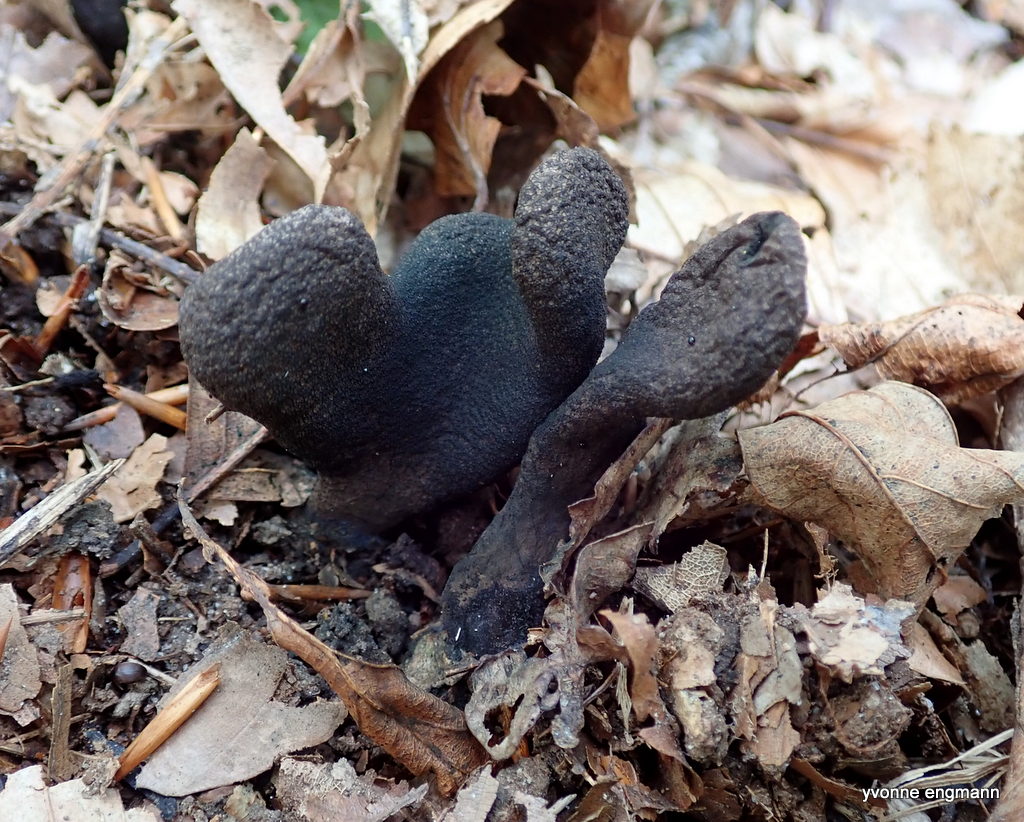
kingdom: Fungi
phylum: Ascomycota
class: Sordariomycetes
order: Xylariales
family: Xylariaceae
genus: Xylaria
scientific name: Xylaria polymorpha
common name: kølle-stødsvamp
